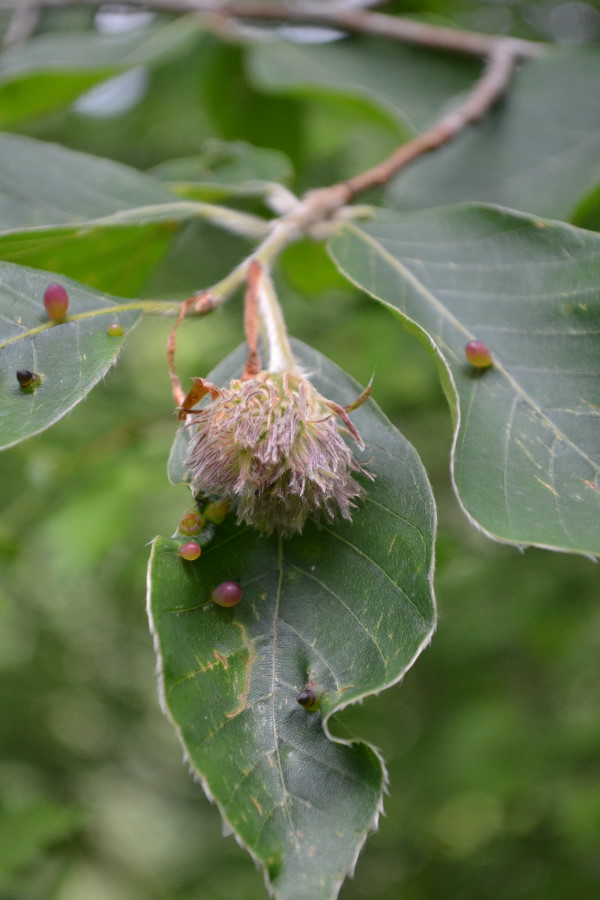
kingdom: Plantae
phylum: Tracheophyta
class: Magnoliopsida
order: Fagales
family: Fagaceae
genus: Fagus
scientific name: Fagus
